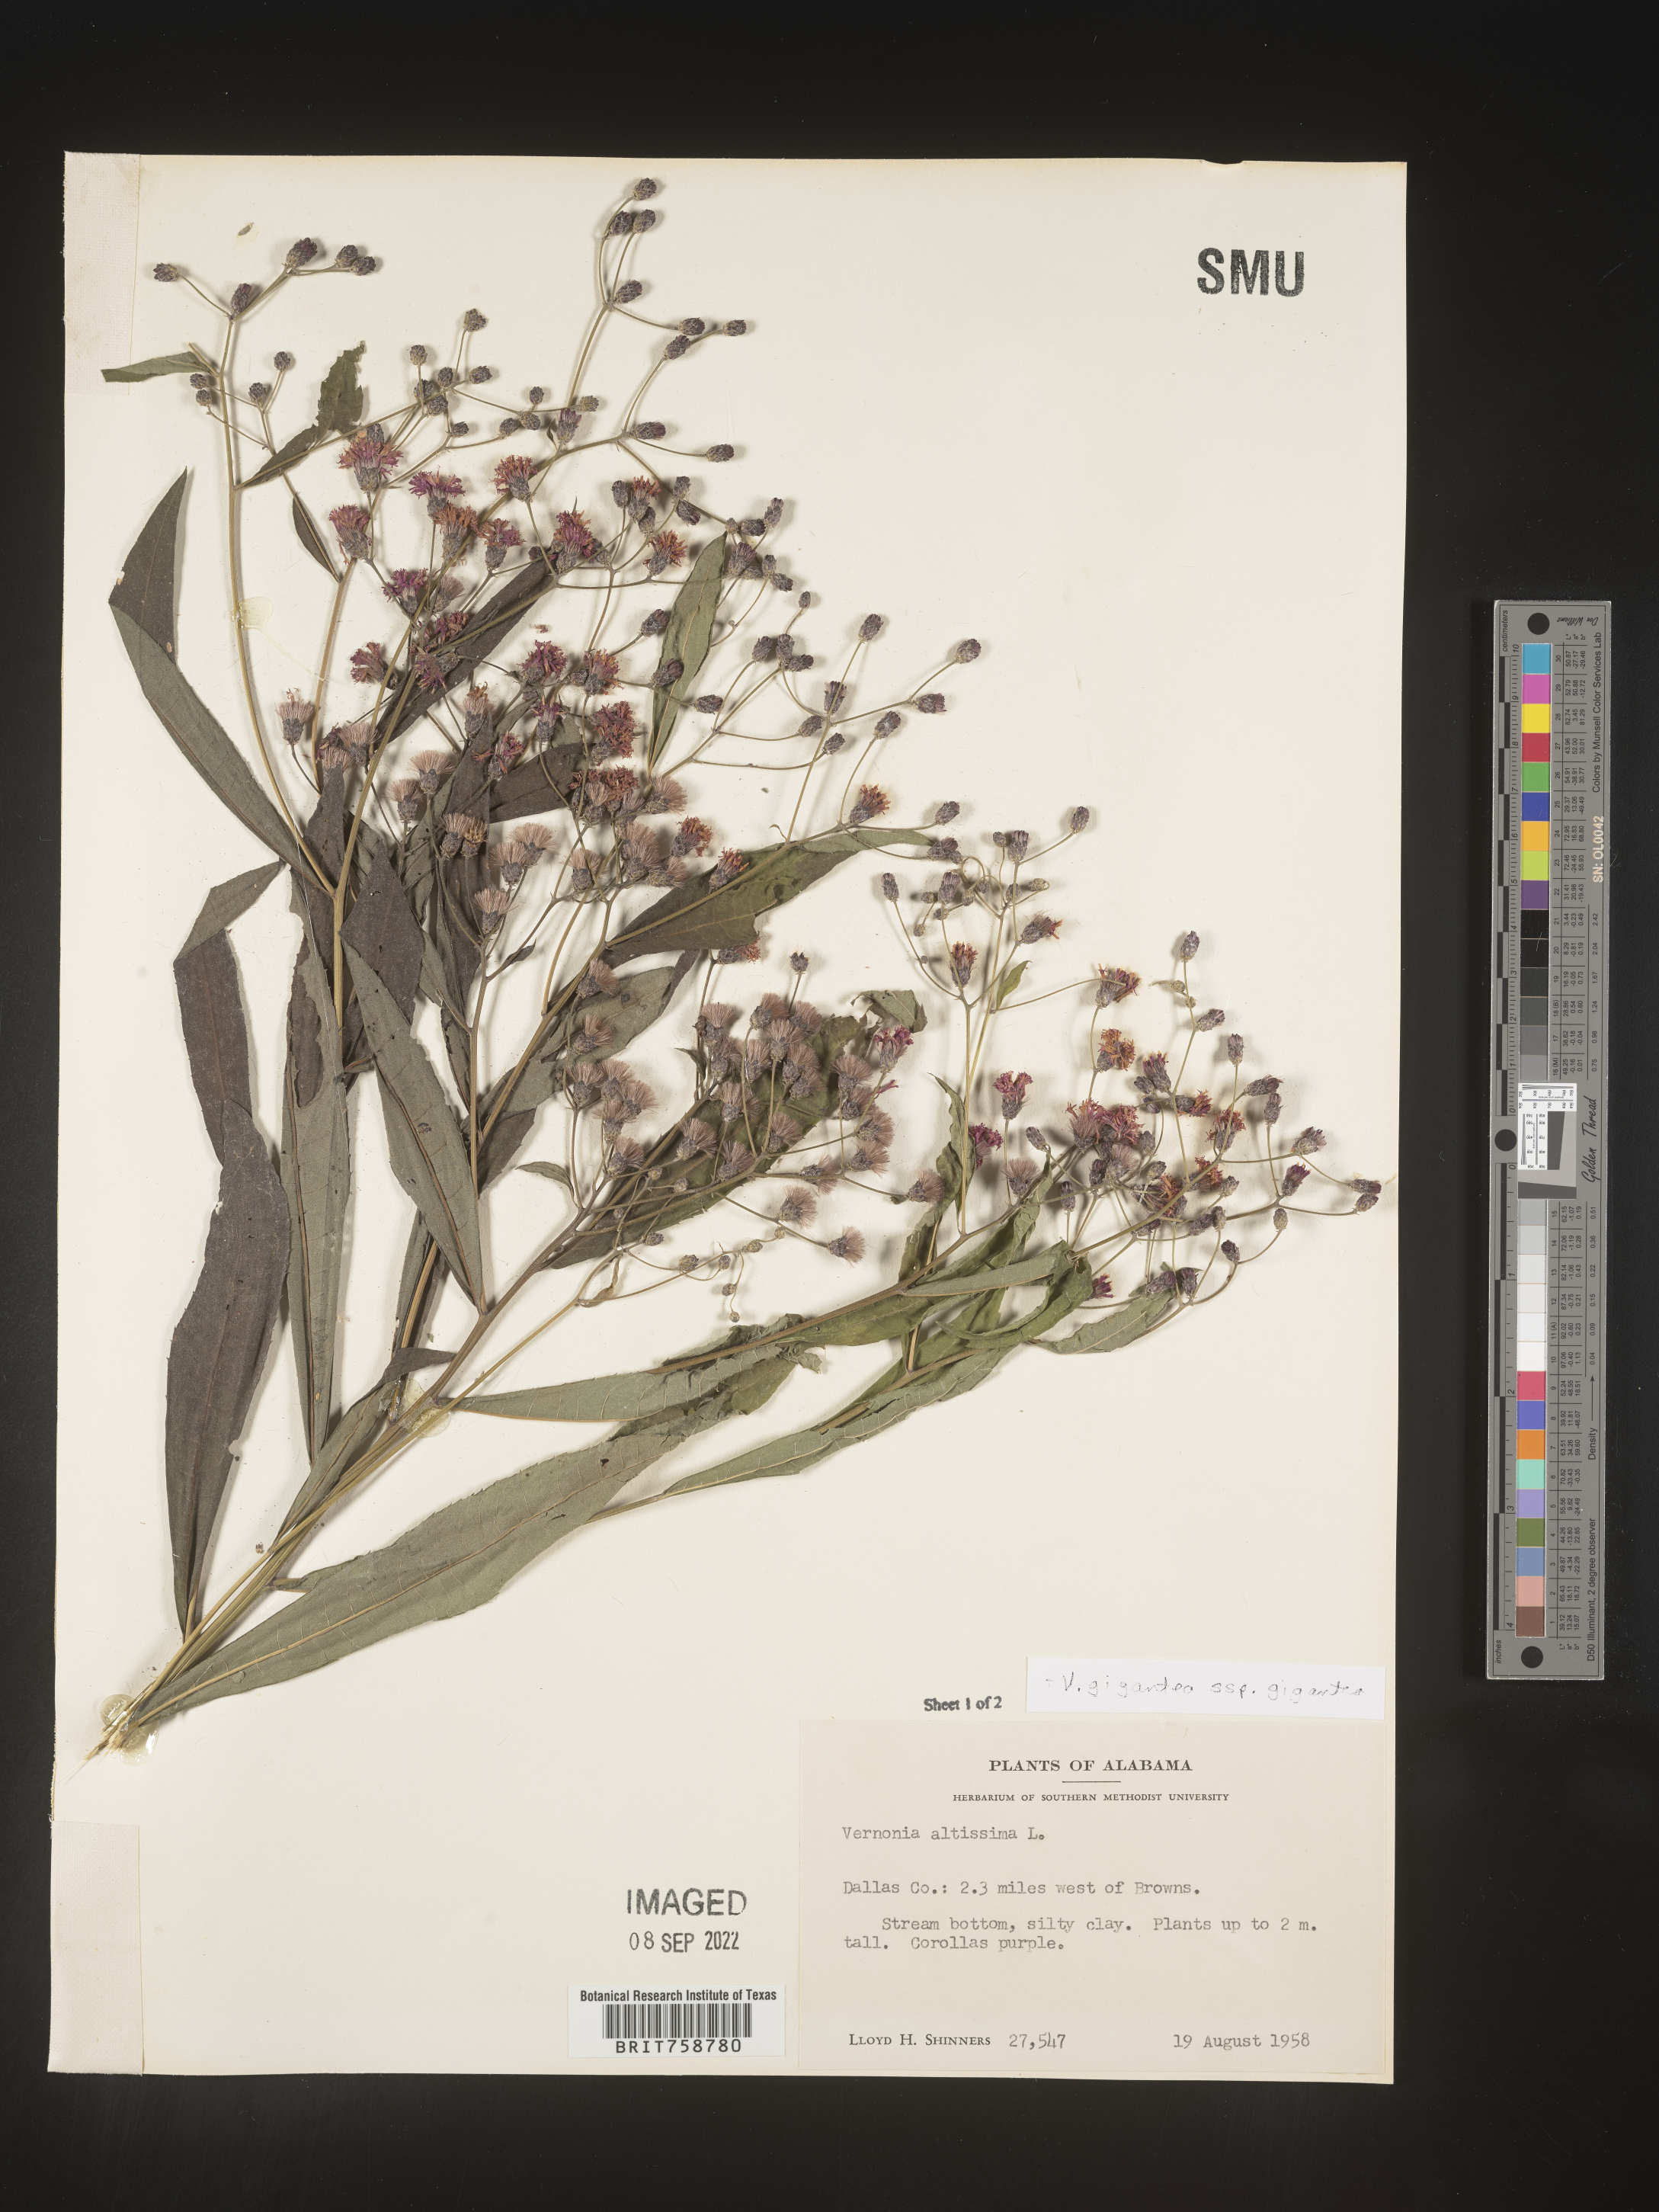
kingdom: Plantae
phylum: Tracheophyta
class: Magnoliopsida
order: Asterales
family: Asteraceae
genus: Vernonia
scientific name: Vernonia gigantea
